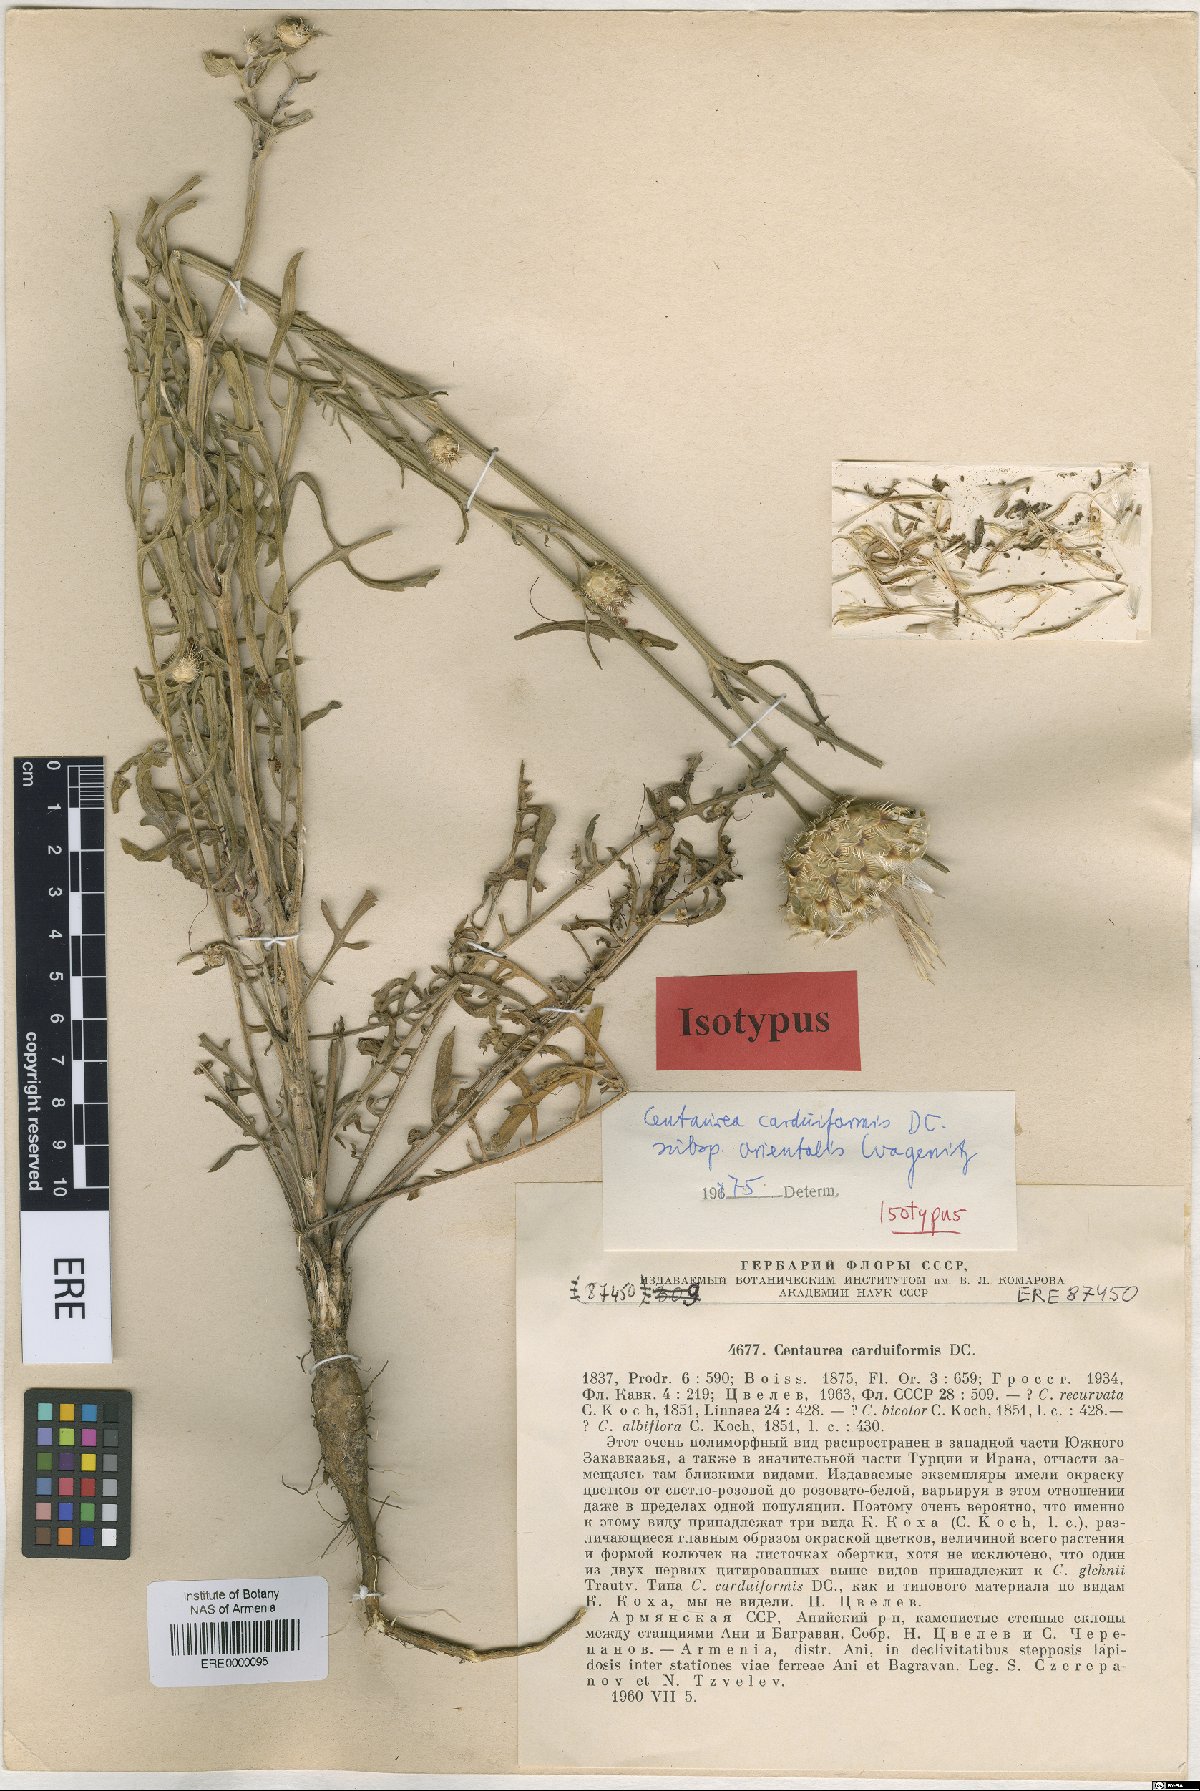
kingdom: Plantae
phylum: Tracheophyta
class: Magnoliopsida
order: Asterales
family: Asteraceae
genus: Centaurea
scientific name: Centaurea carduiformis
